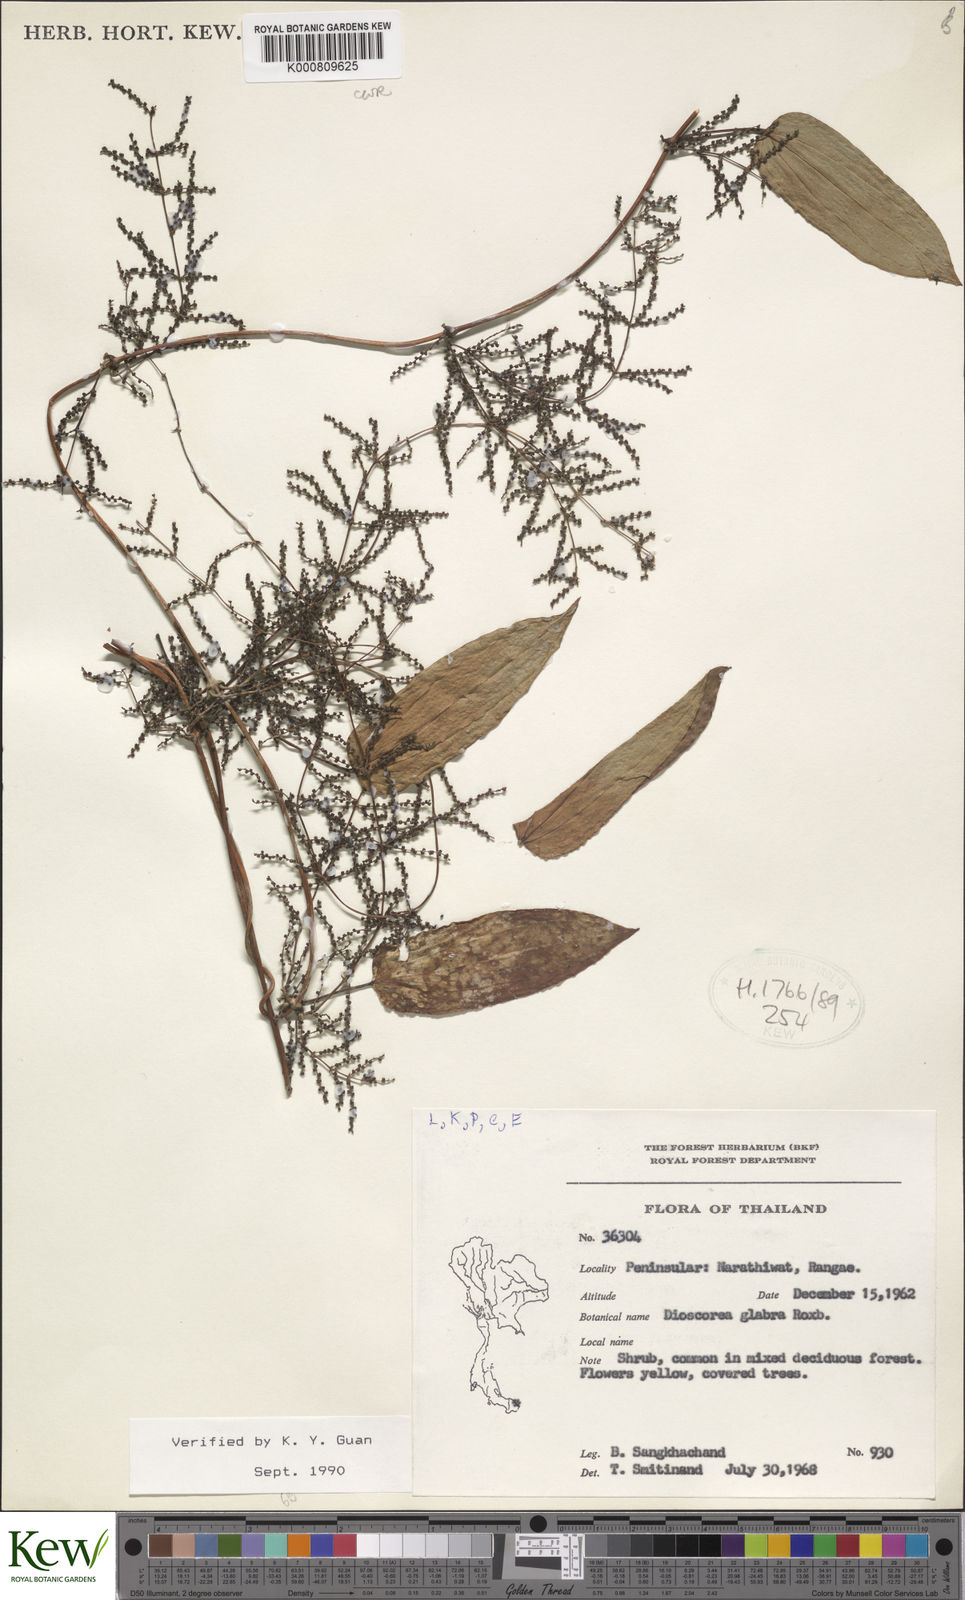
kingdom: Plantae
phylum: Tracheophyta
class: Liliopsida
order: Dioscoreales
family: Dioscoreaceae
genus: Dioscorea
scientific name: Dioscorea glabra
